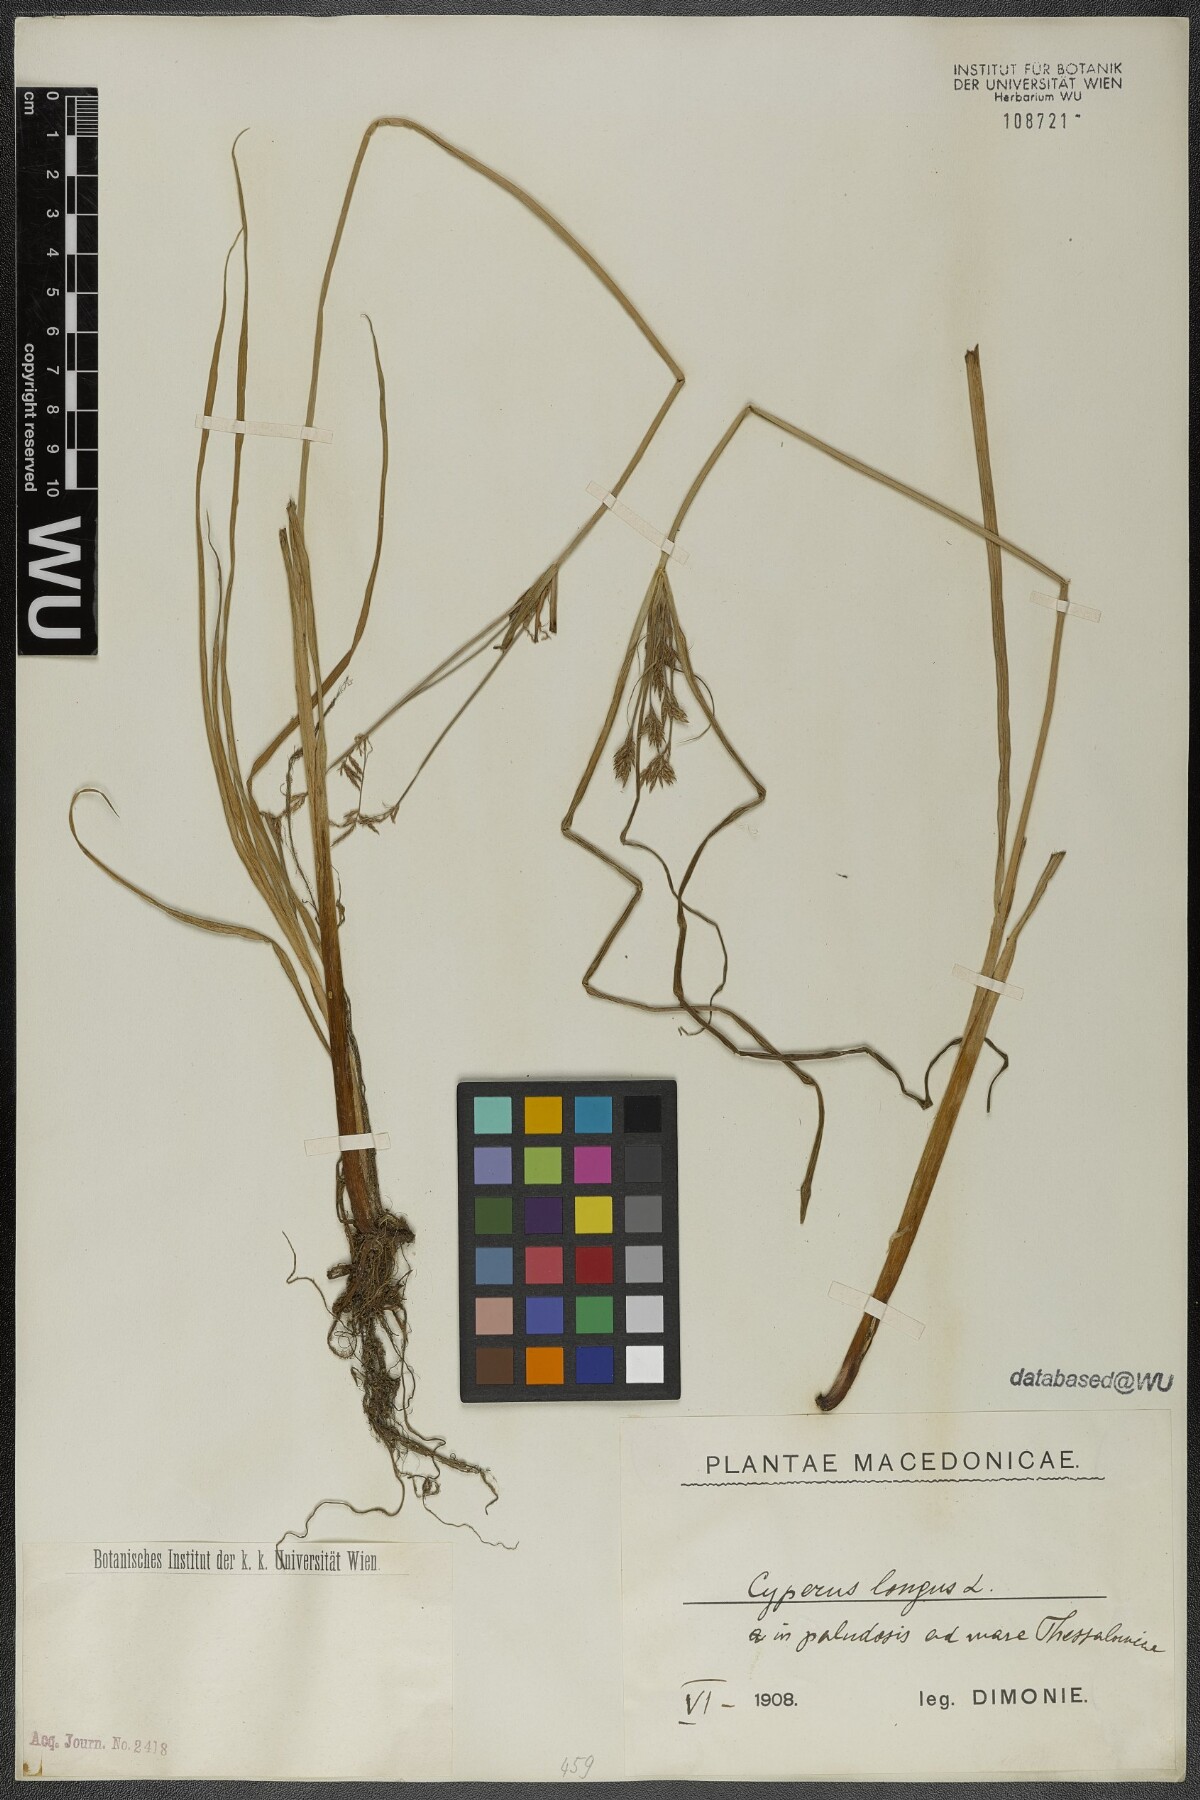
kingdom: Plantae
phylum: Tracheophyta
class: Liliopsida
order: Poales
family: Cyperaceae
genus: Cyperus
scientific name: Cyperus longus
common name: Galingale
